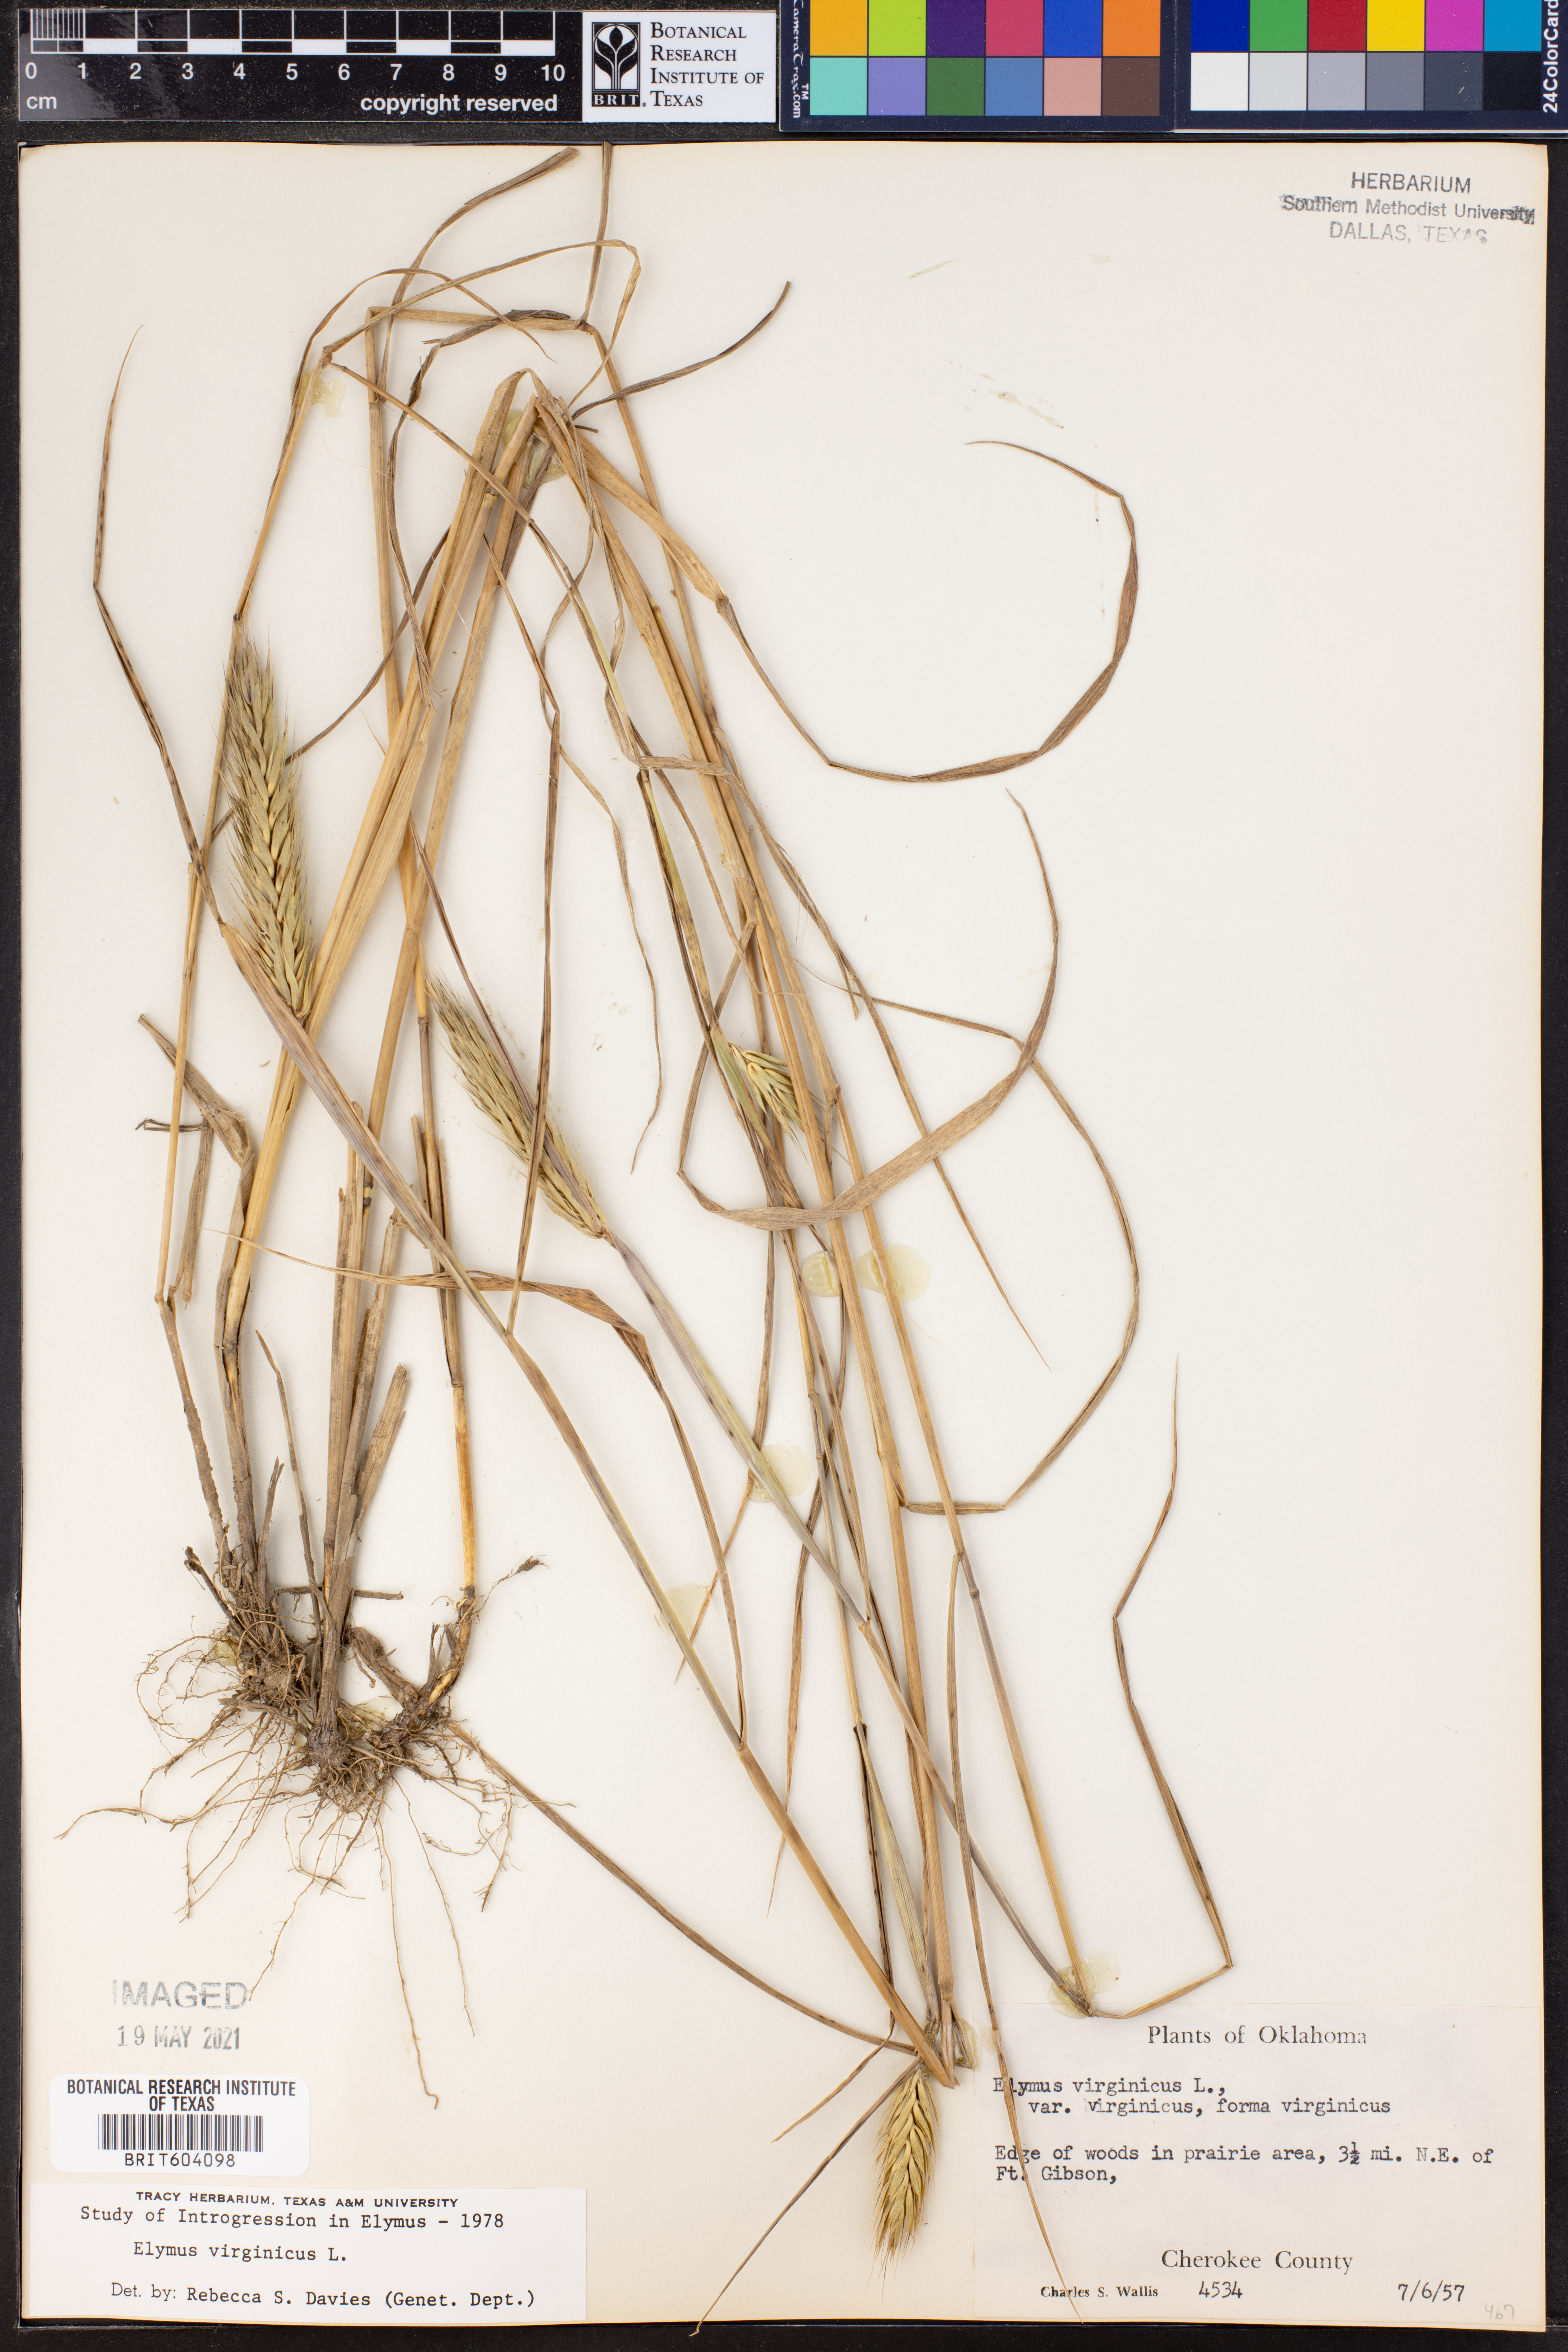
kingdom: Plantae
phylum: Tracheophyta
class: Liliopsida
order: Poales
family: Poaceae
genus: Elymus
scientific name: Elymus virginicus
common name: Common eastern wildrye
